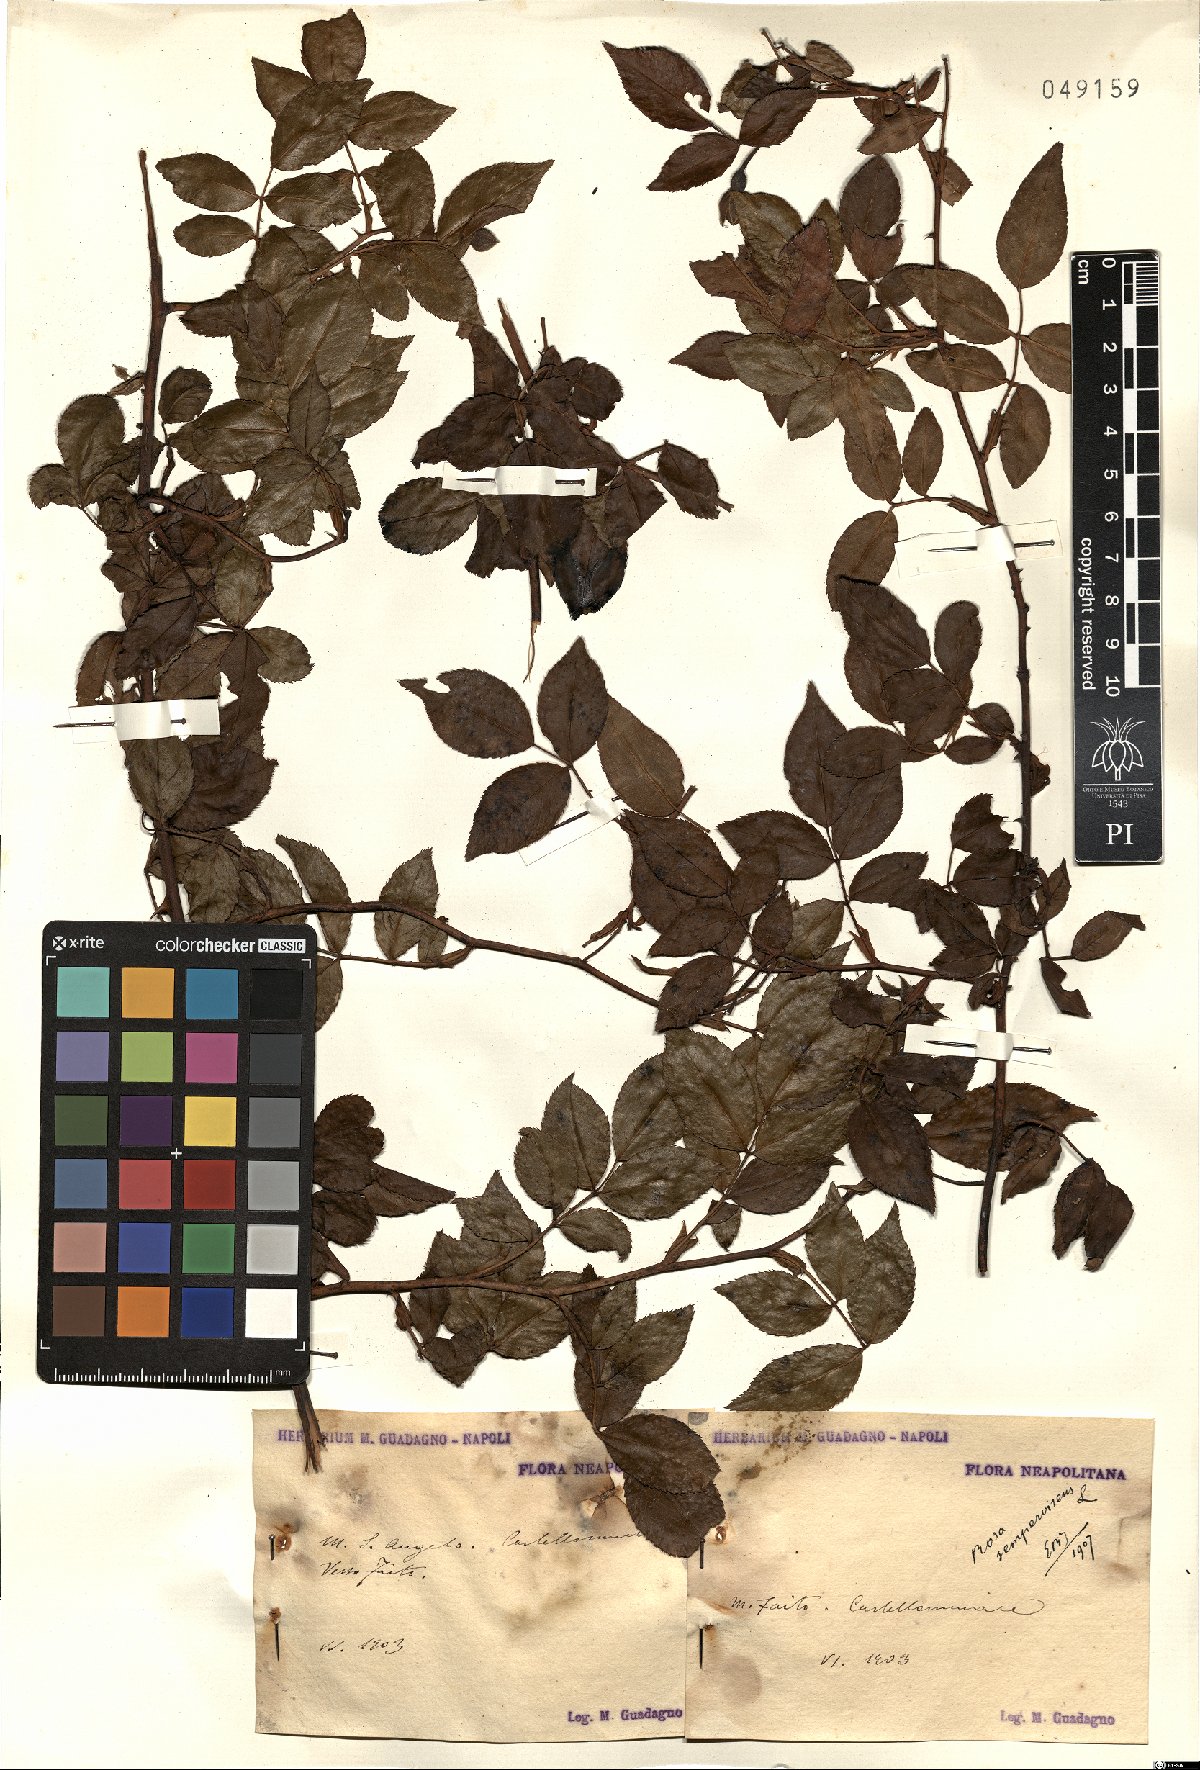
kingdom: Plantae
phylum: Tracheophyta
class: Magnoliopsida
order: Rosales
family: Rosaceae
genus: Rosa
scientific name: Rosa sempervirens
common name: Evergreen rose
